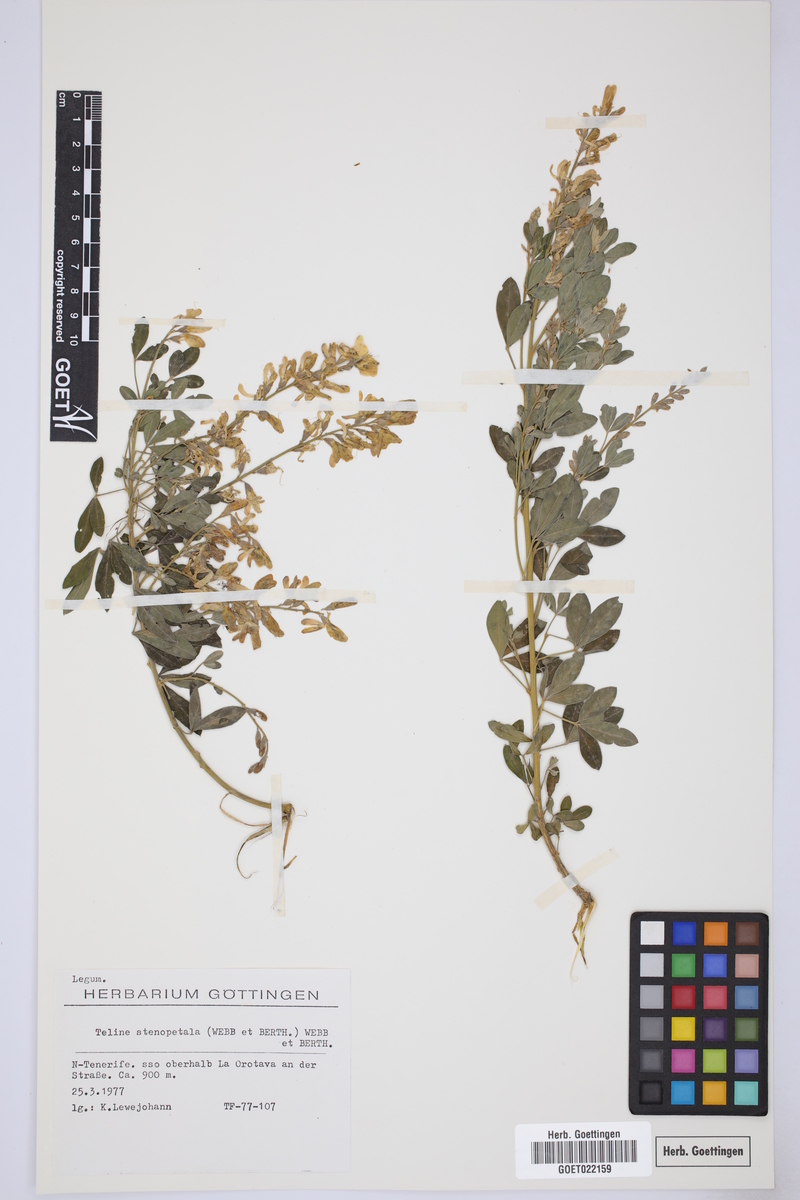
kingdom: Plantae
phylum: Tracheophyta
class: Magnoliopsida
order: Fabales
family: Fabaceae
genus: Genista
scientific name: Genista stenopetala
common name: Leafy broom
